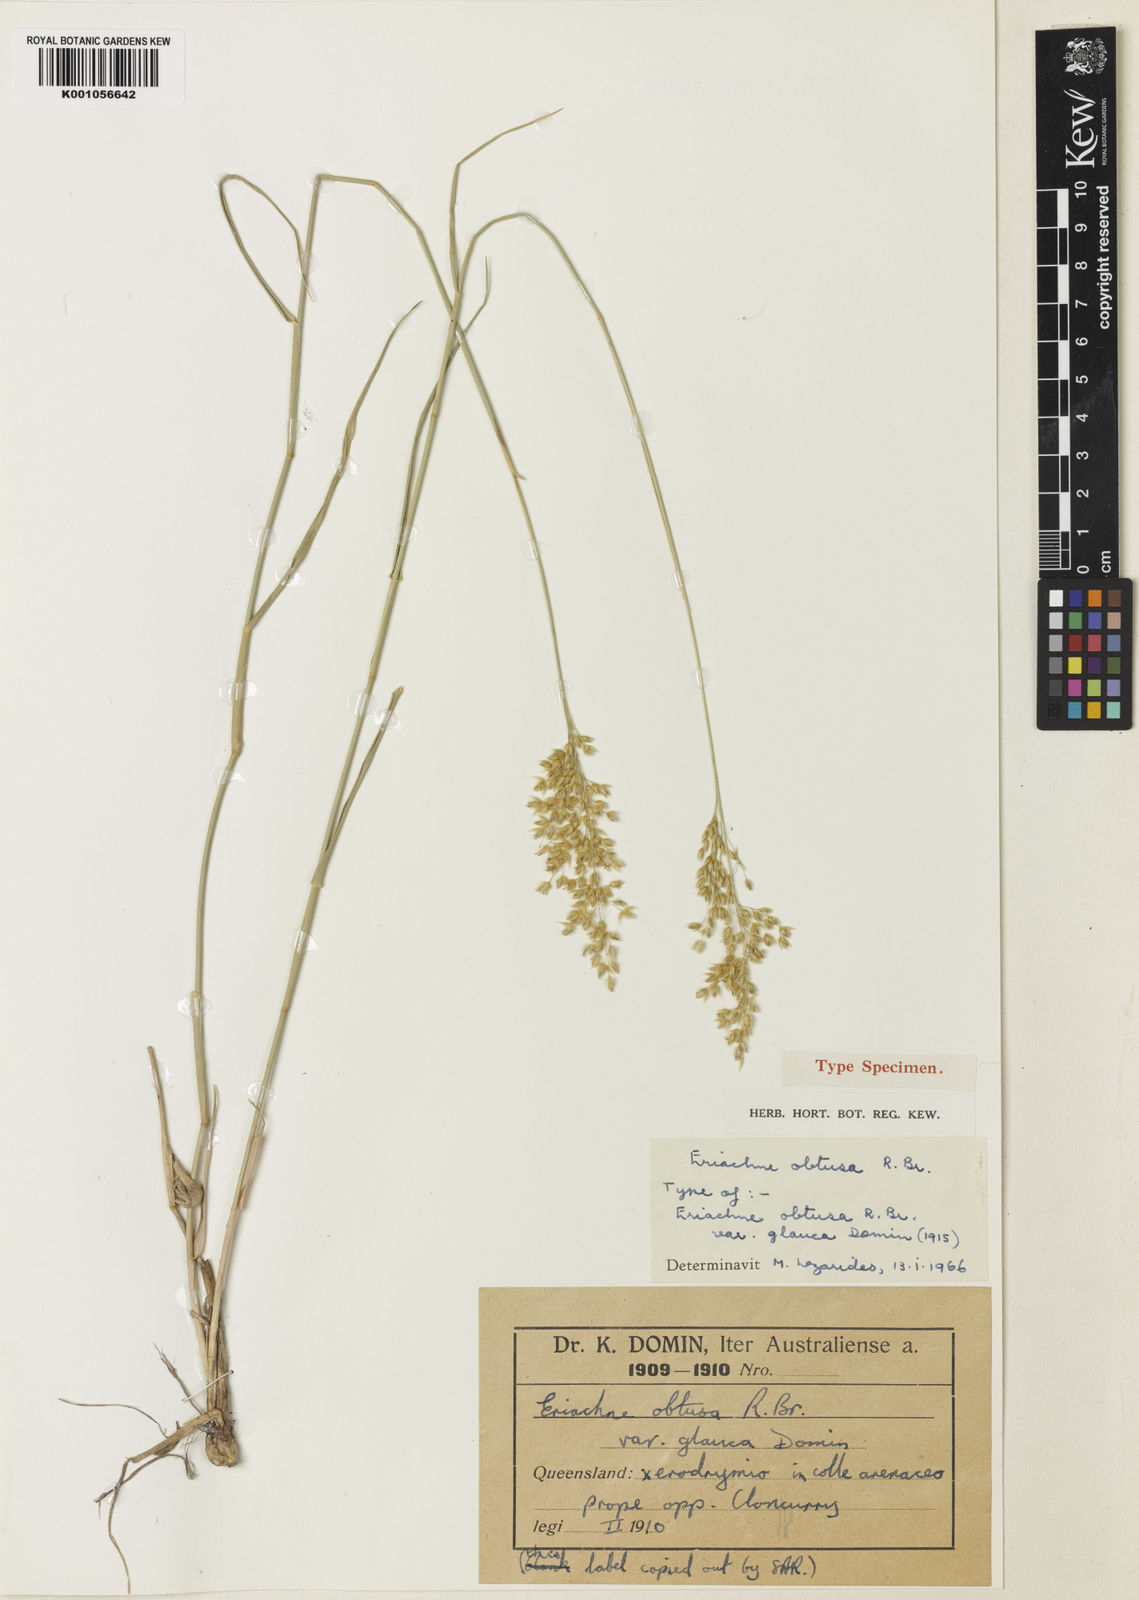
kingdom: Plantae
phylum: Tracheophyta
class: Liliopsida
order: Poales
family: Poaceae
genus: Eriachne
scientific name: Eriachne obtusa
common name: Northern wanderrie grass
